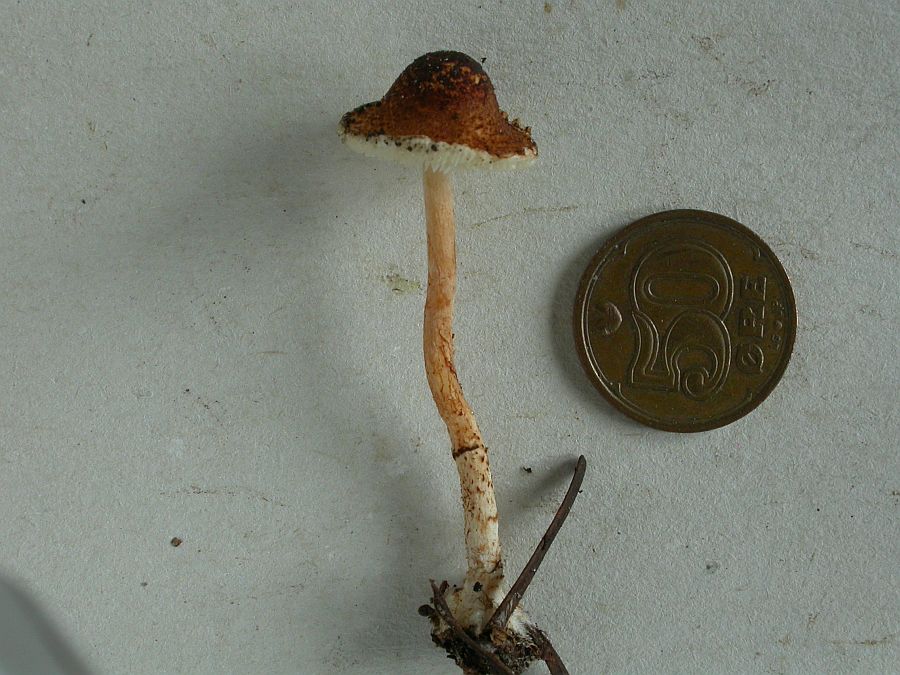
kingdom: Fungi
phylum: Basidiomycota
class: Agaricomycetes
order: Agaricales
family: Agaricaceae
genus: Lepiota
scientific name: Lepiota castanea
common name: kastaniebrun parasolhat
